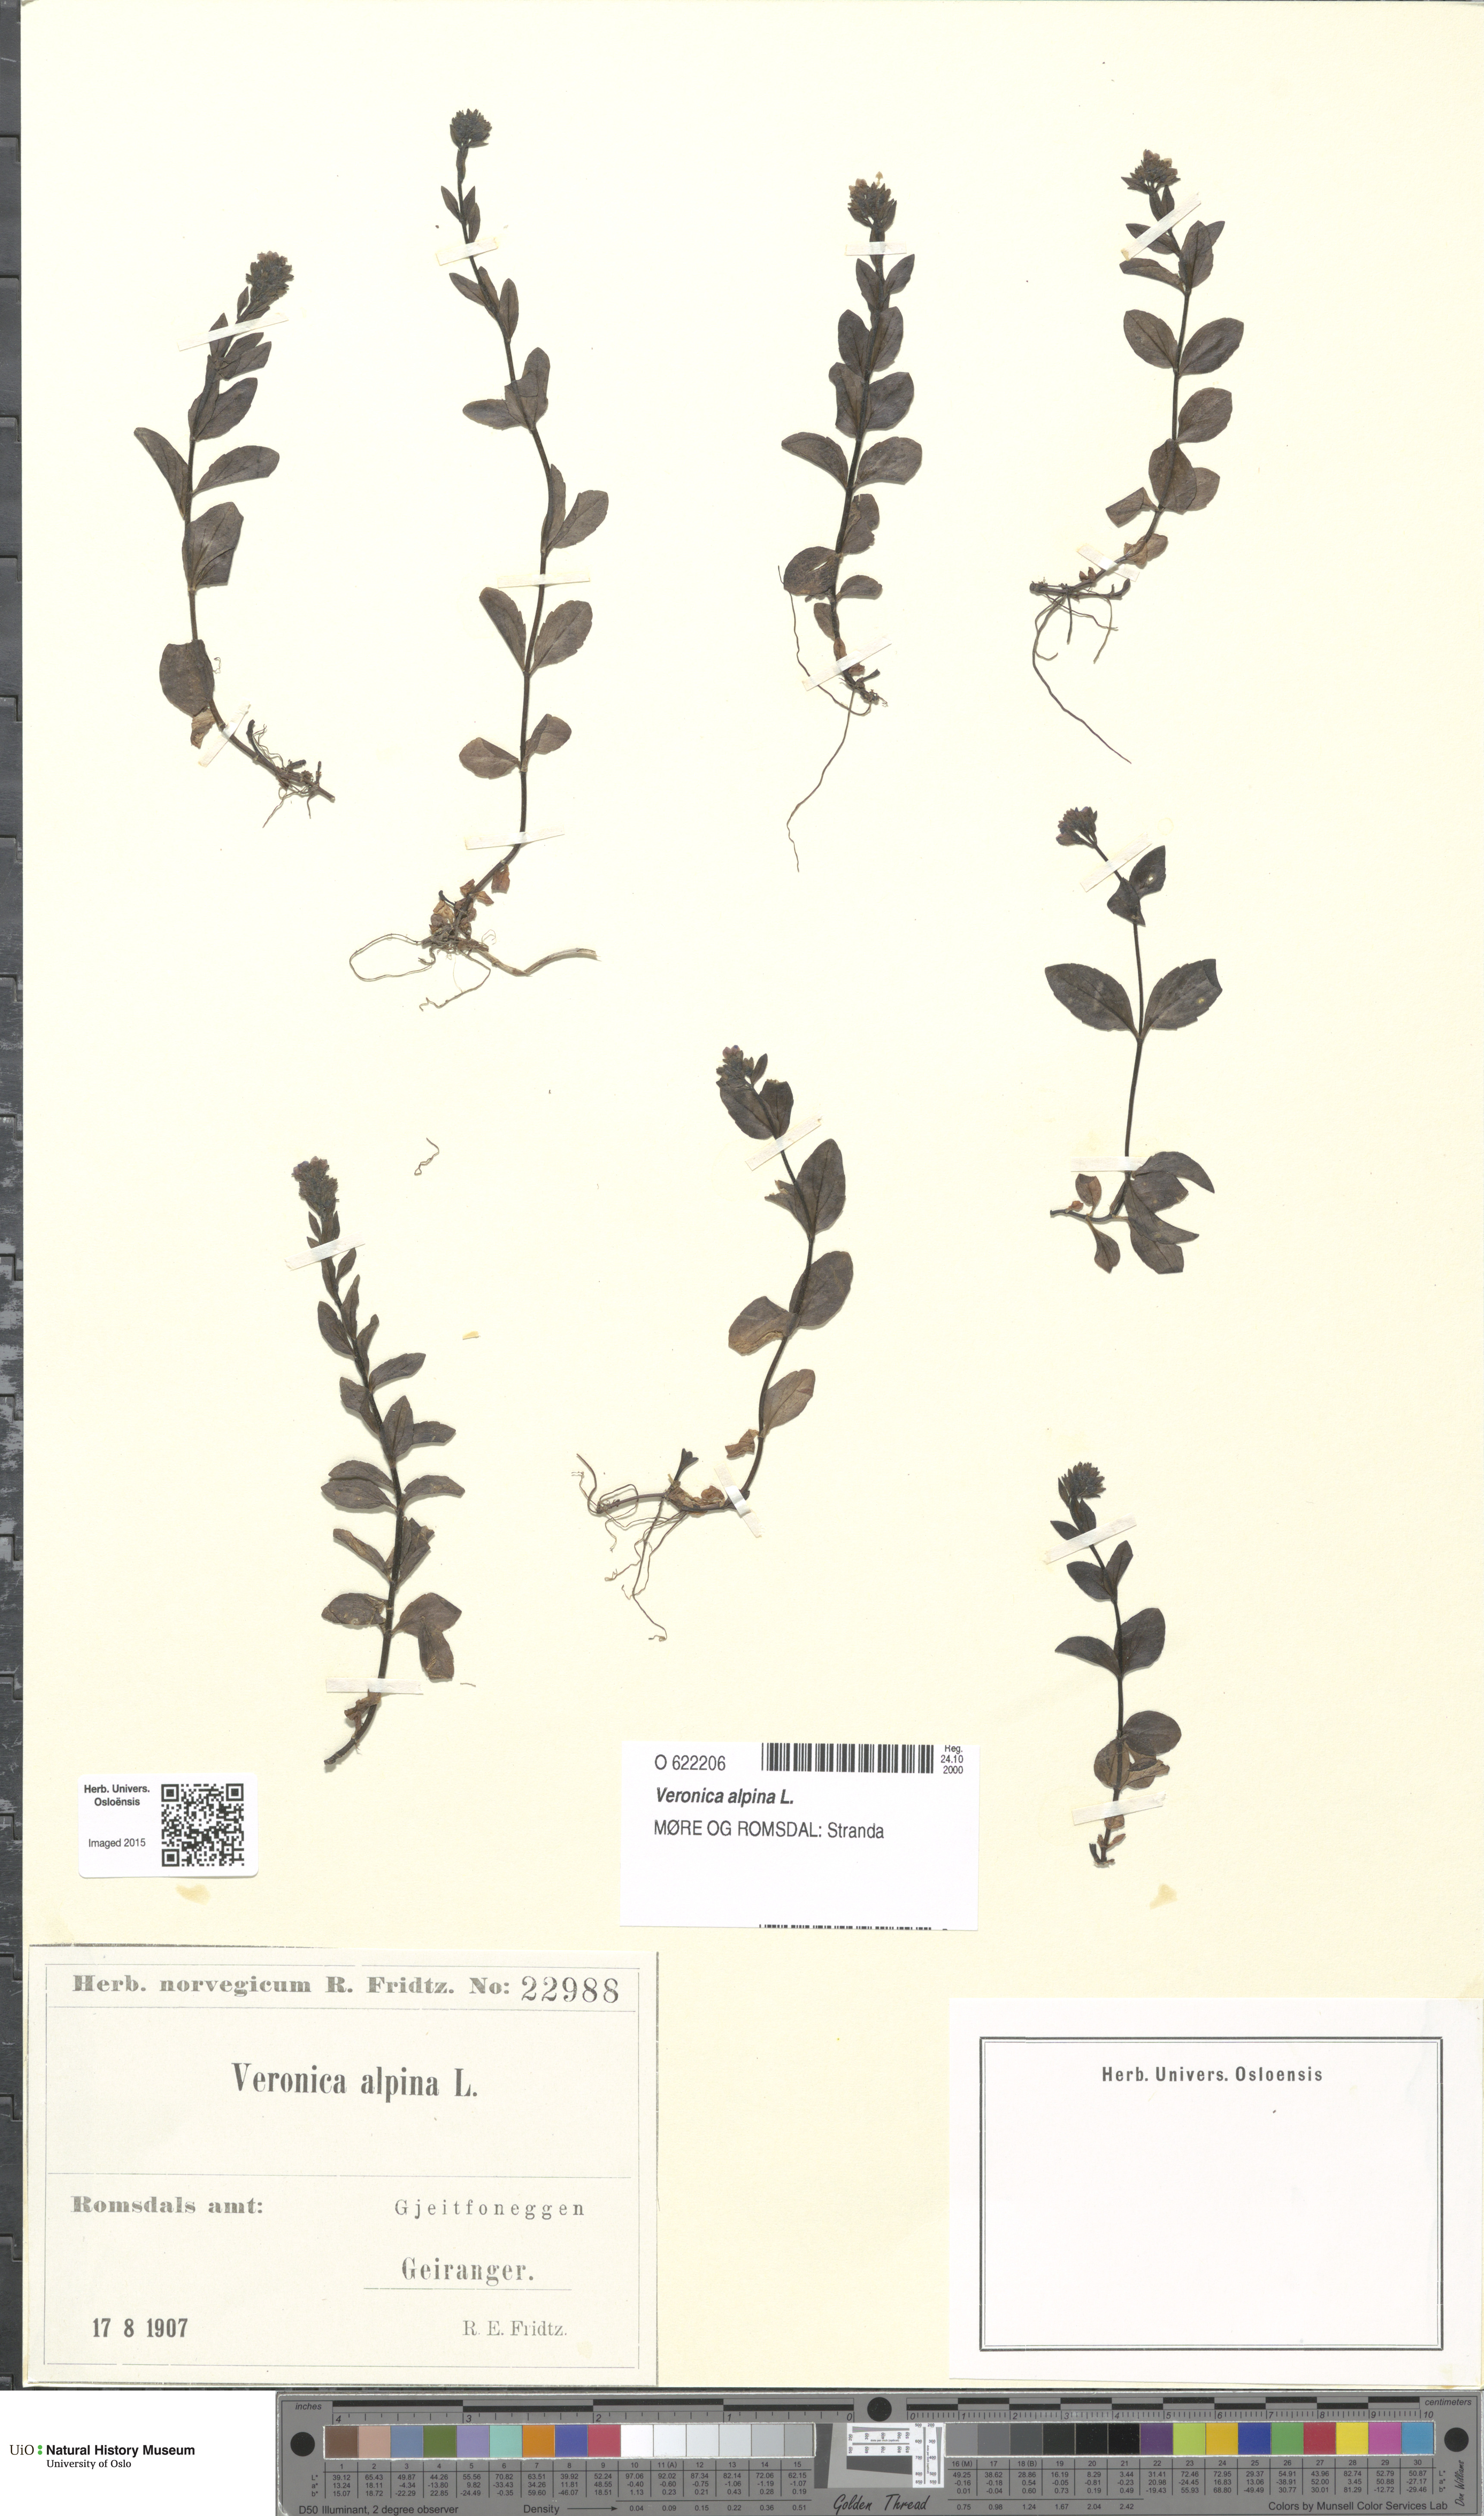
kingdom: Plantae
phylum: Tracheophyta
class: Magnoliopsida
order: Lamiales
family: Plantaginaceae
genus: Veronica
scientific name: Veronica alpina
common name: Alpine speedwell
